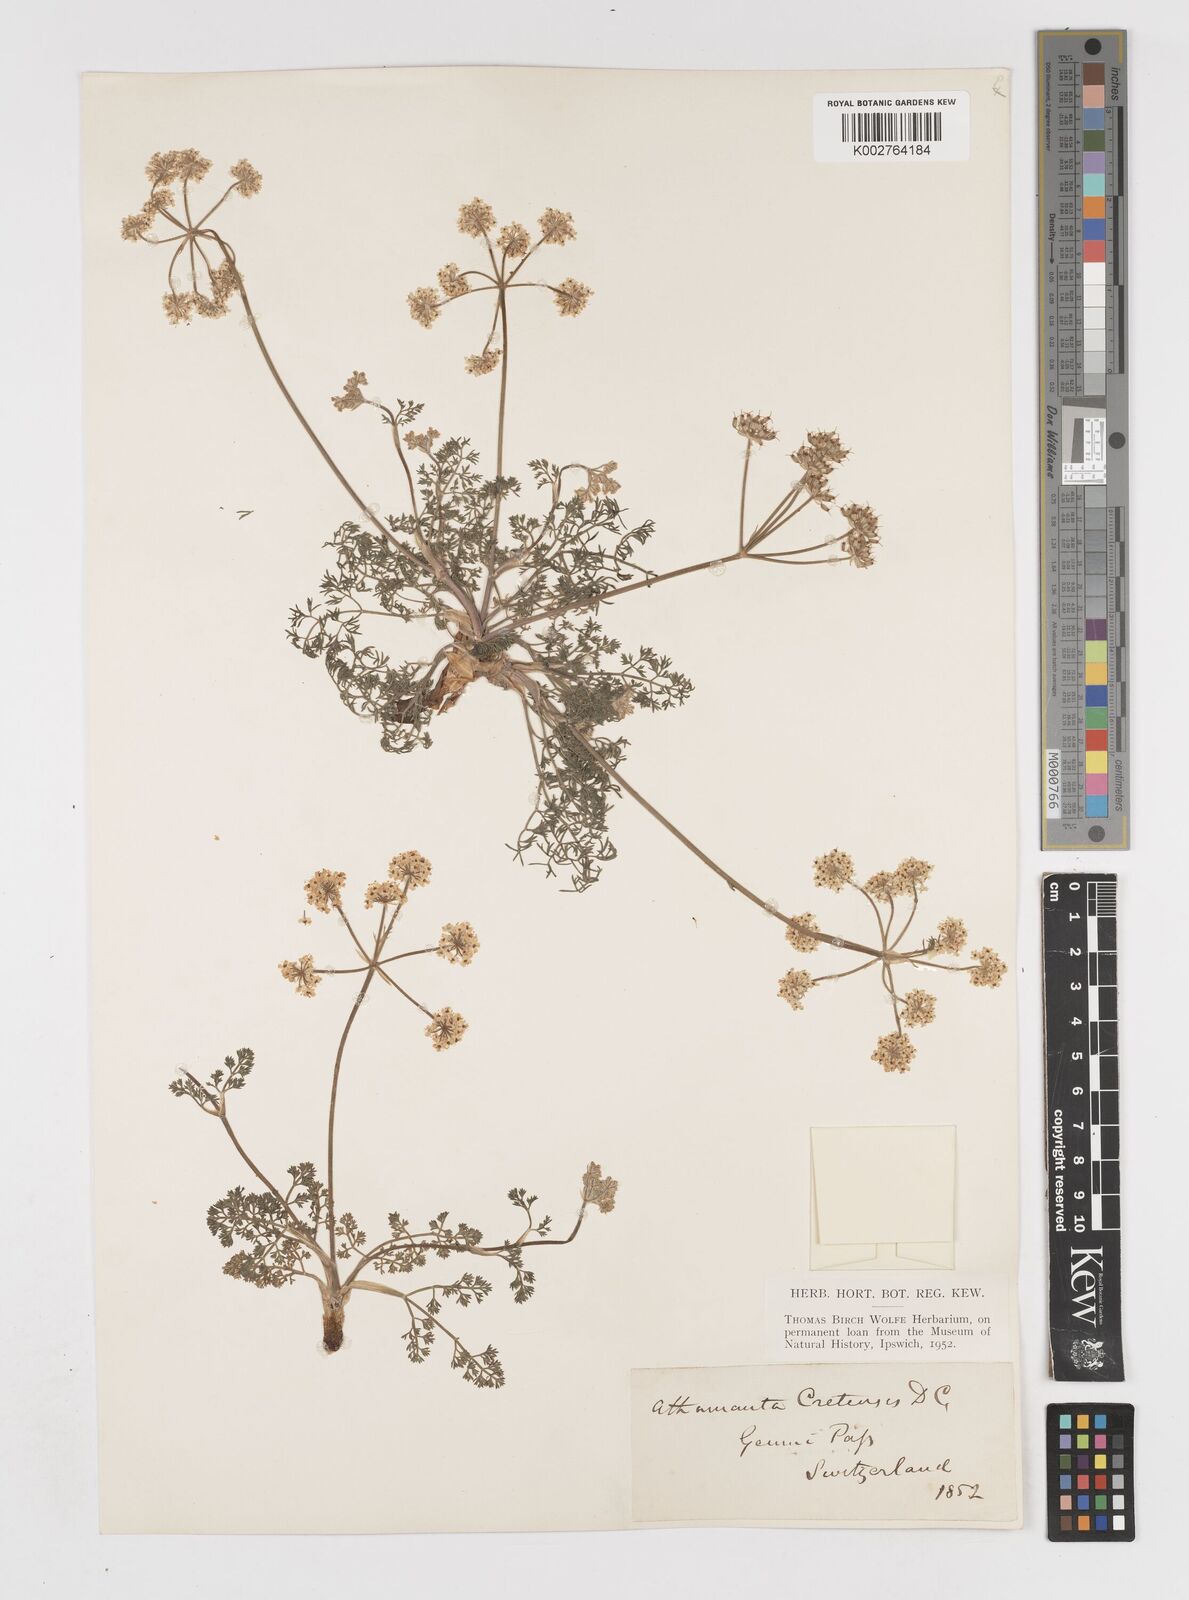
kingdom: Plantae
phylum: Tracheophyta
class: Magnoliopsida
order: Apiales
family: Apiaceae
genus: Athamanta
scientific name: Athamanta cretensis
